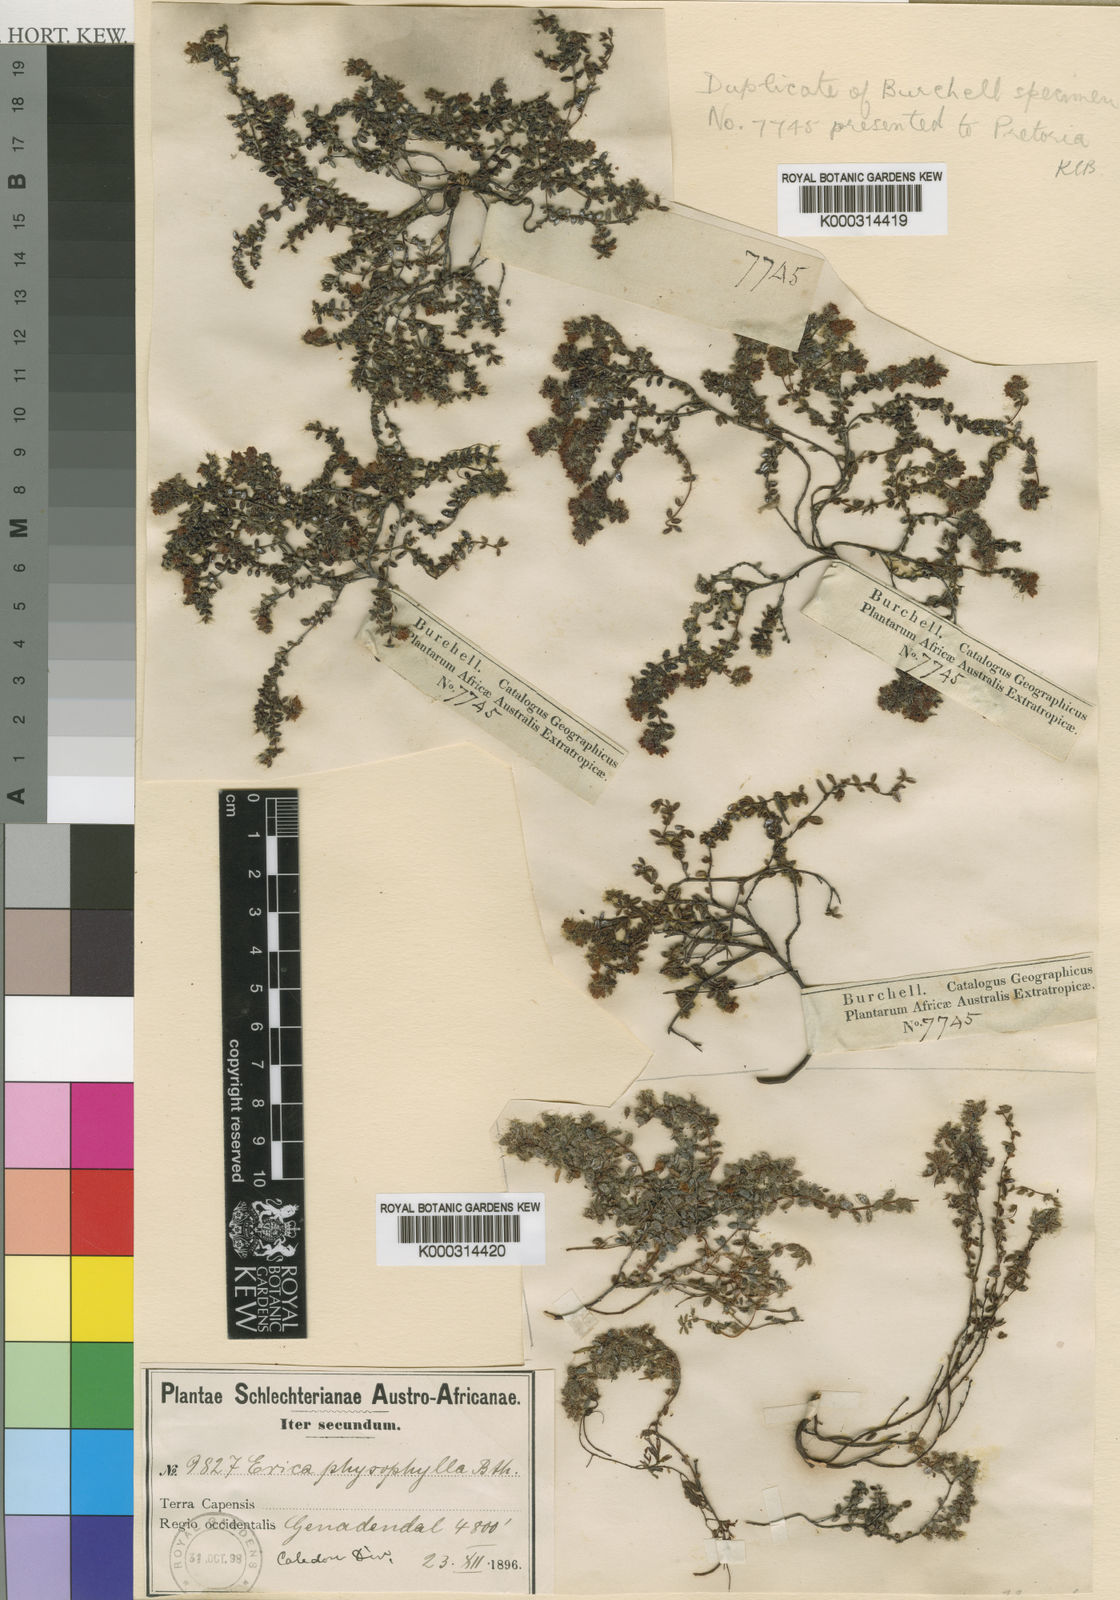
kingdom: Plantae
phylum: Tracheophyta
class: Magnoliopsida
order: Ericales
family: Ericaceae
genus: Erica
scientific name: Erica physophylla
